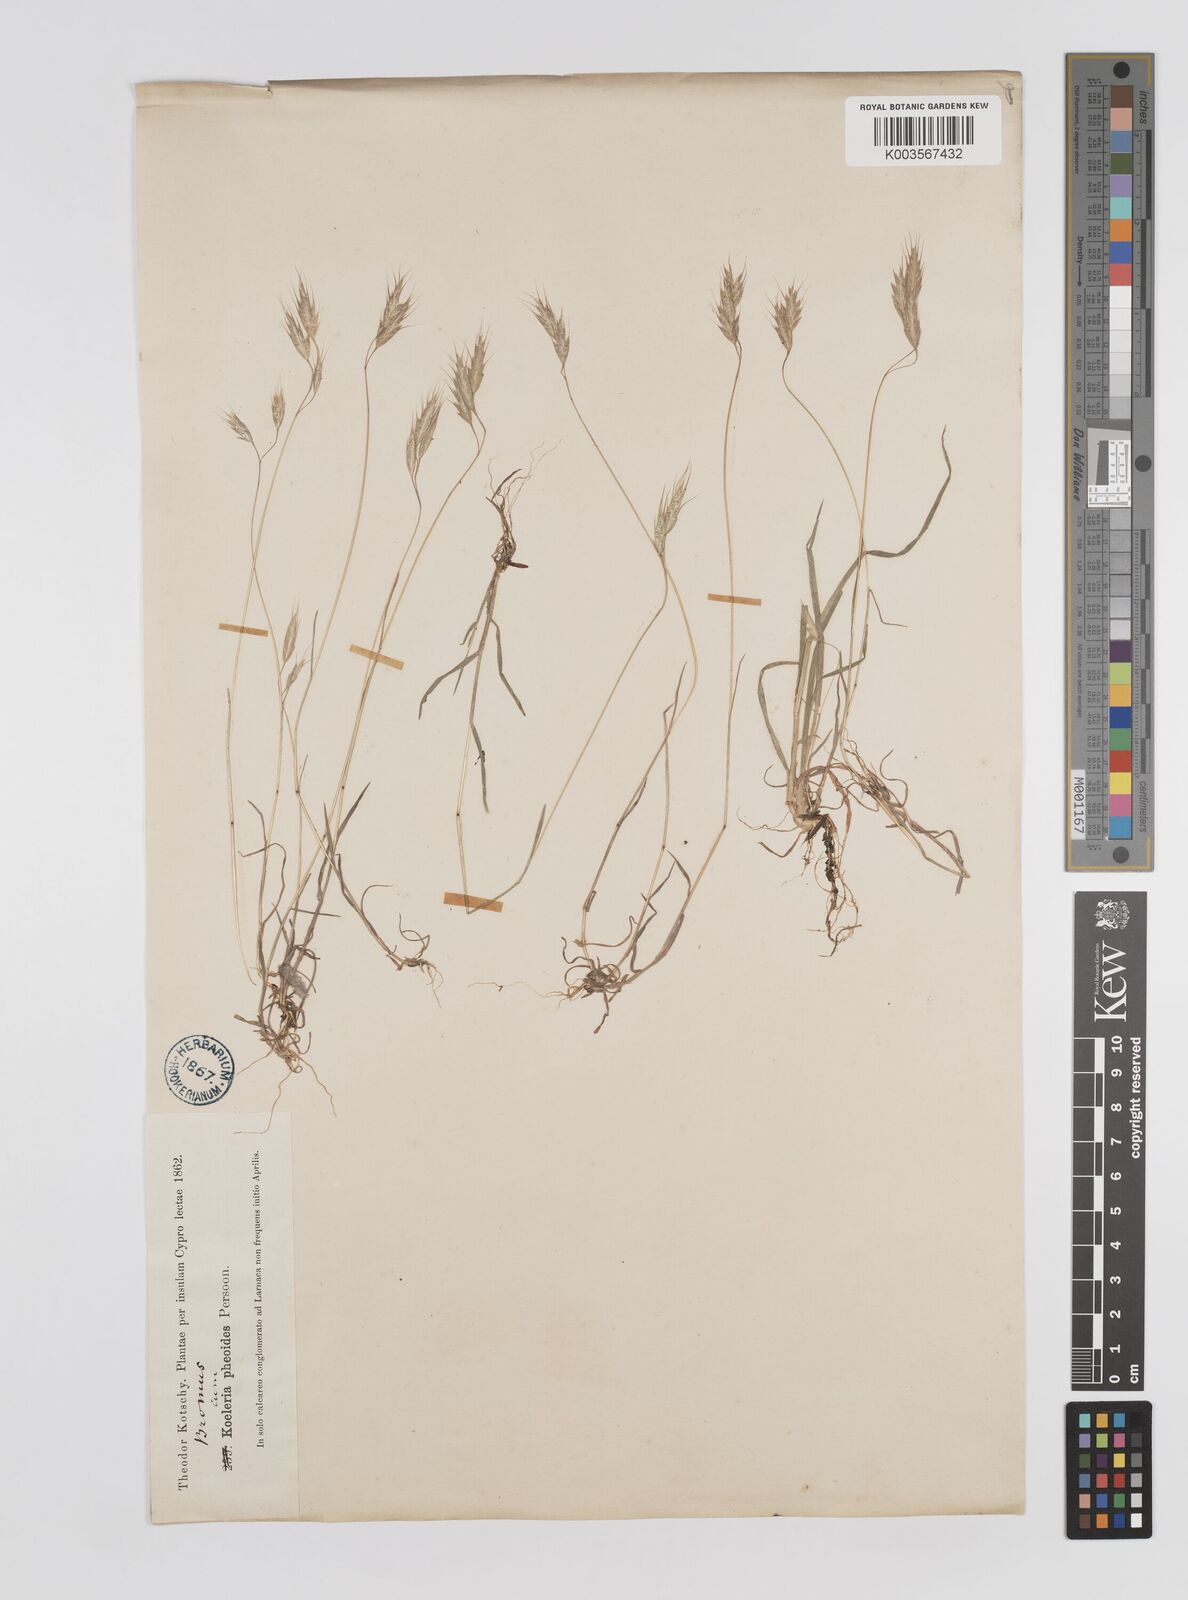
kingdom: Plantae
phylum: Tracheophyta
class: Liliopsida
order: Poales
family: Poaceae
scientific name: Poaceae
